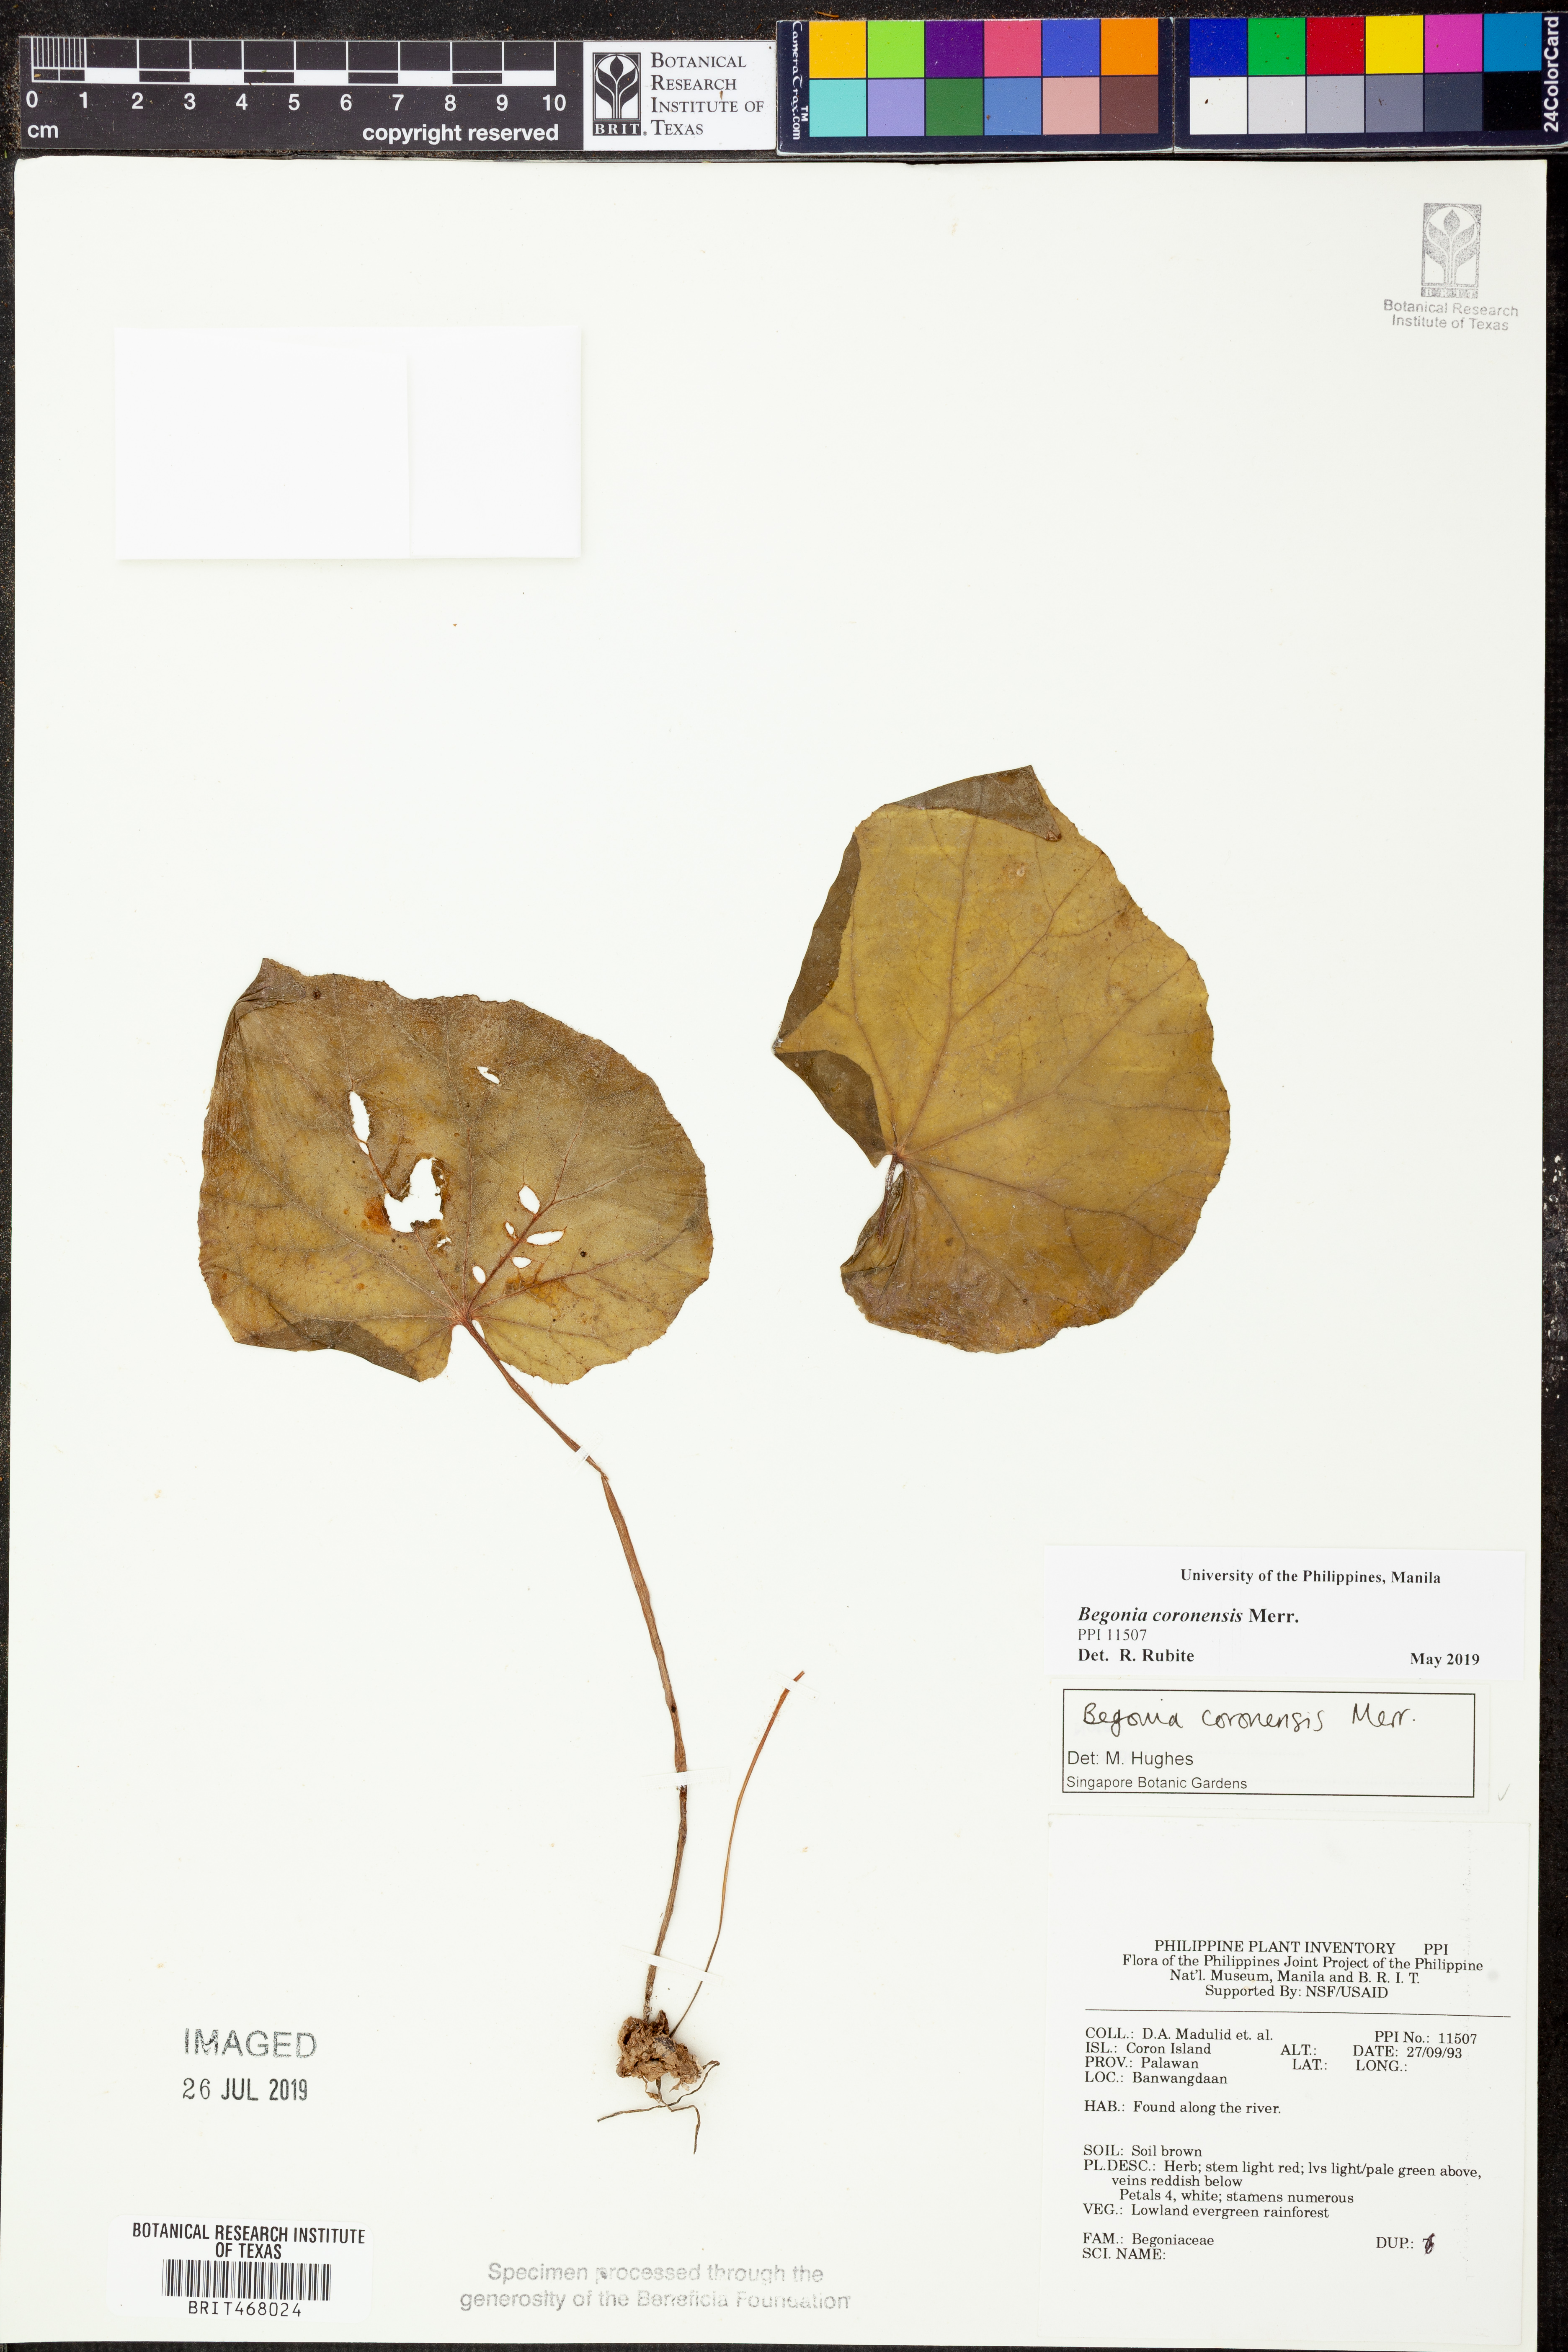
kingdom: Plantae
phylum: Tracheophyta
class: Magnoliopsida
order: Cucurbitales
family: Begoniaceae
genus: Begonia
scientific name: Begonia coronensis
